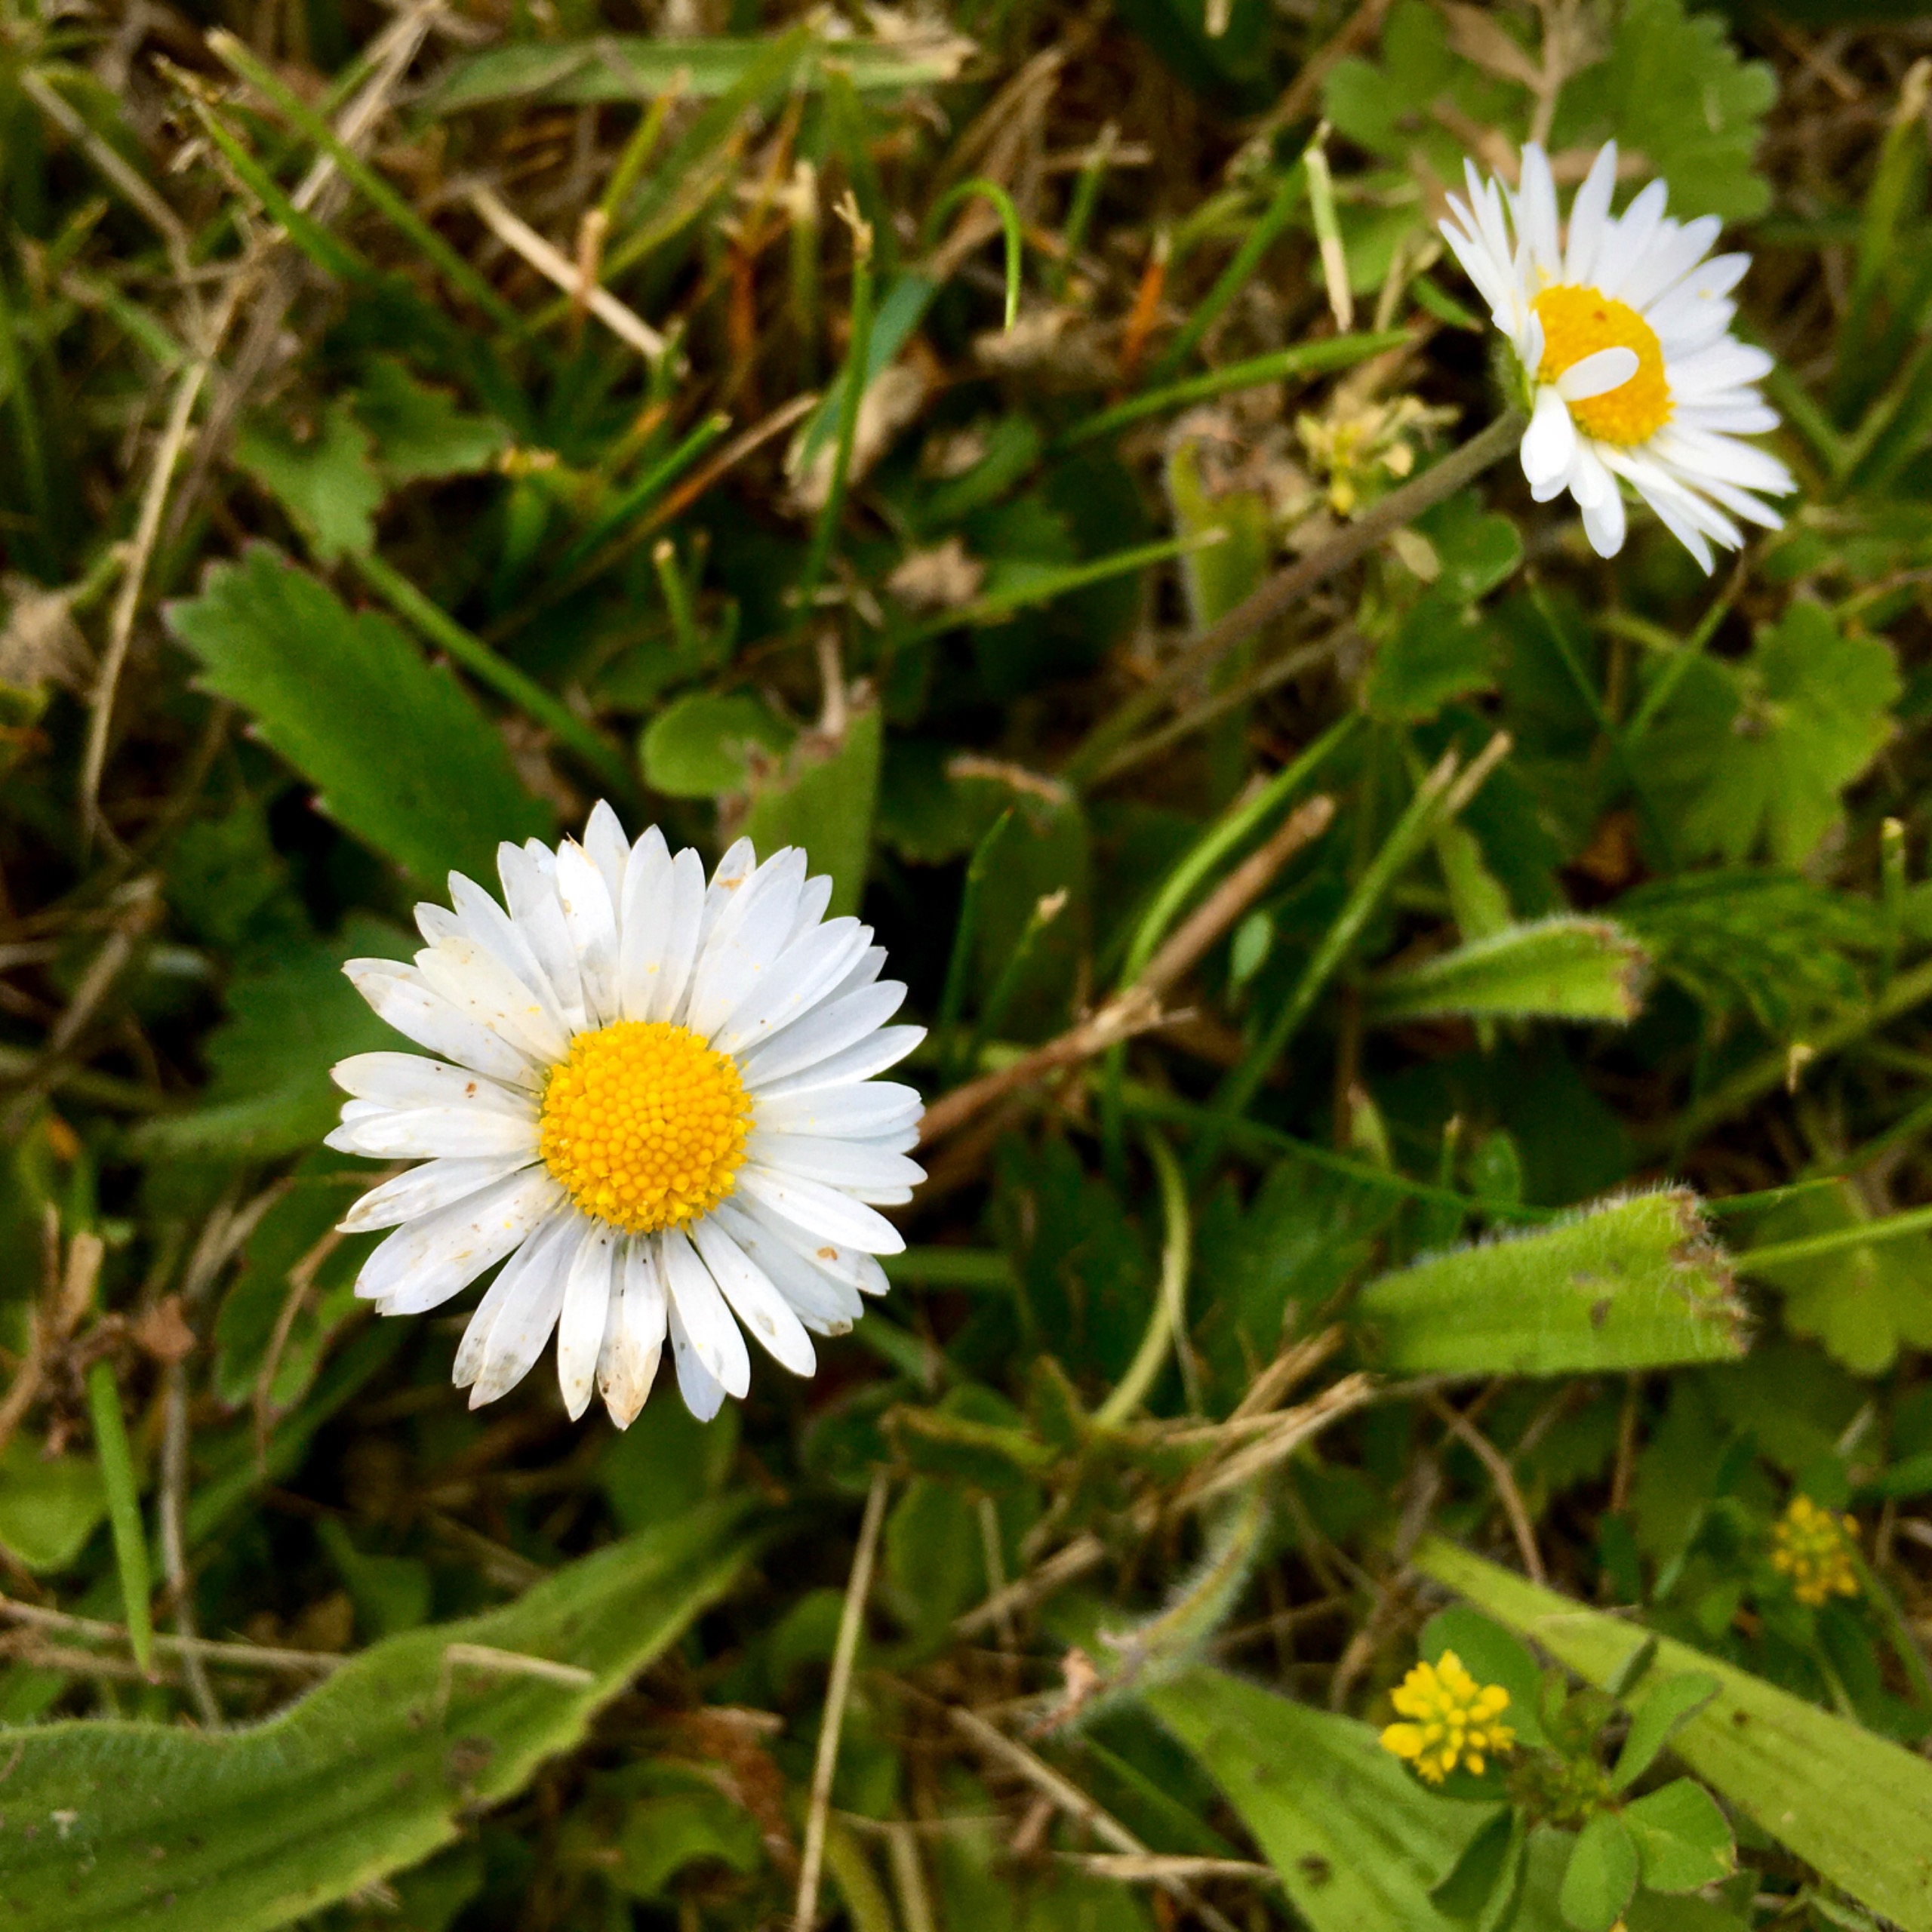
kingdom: Plantae
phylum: Tracheophyta
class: Magnoliopsida
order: Asterales
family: Asteraceae
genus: Bellis
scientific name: Bellis perennis
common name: Tusindfryd
